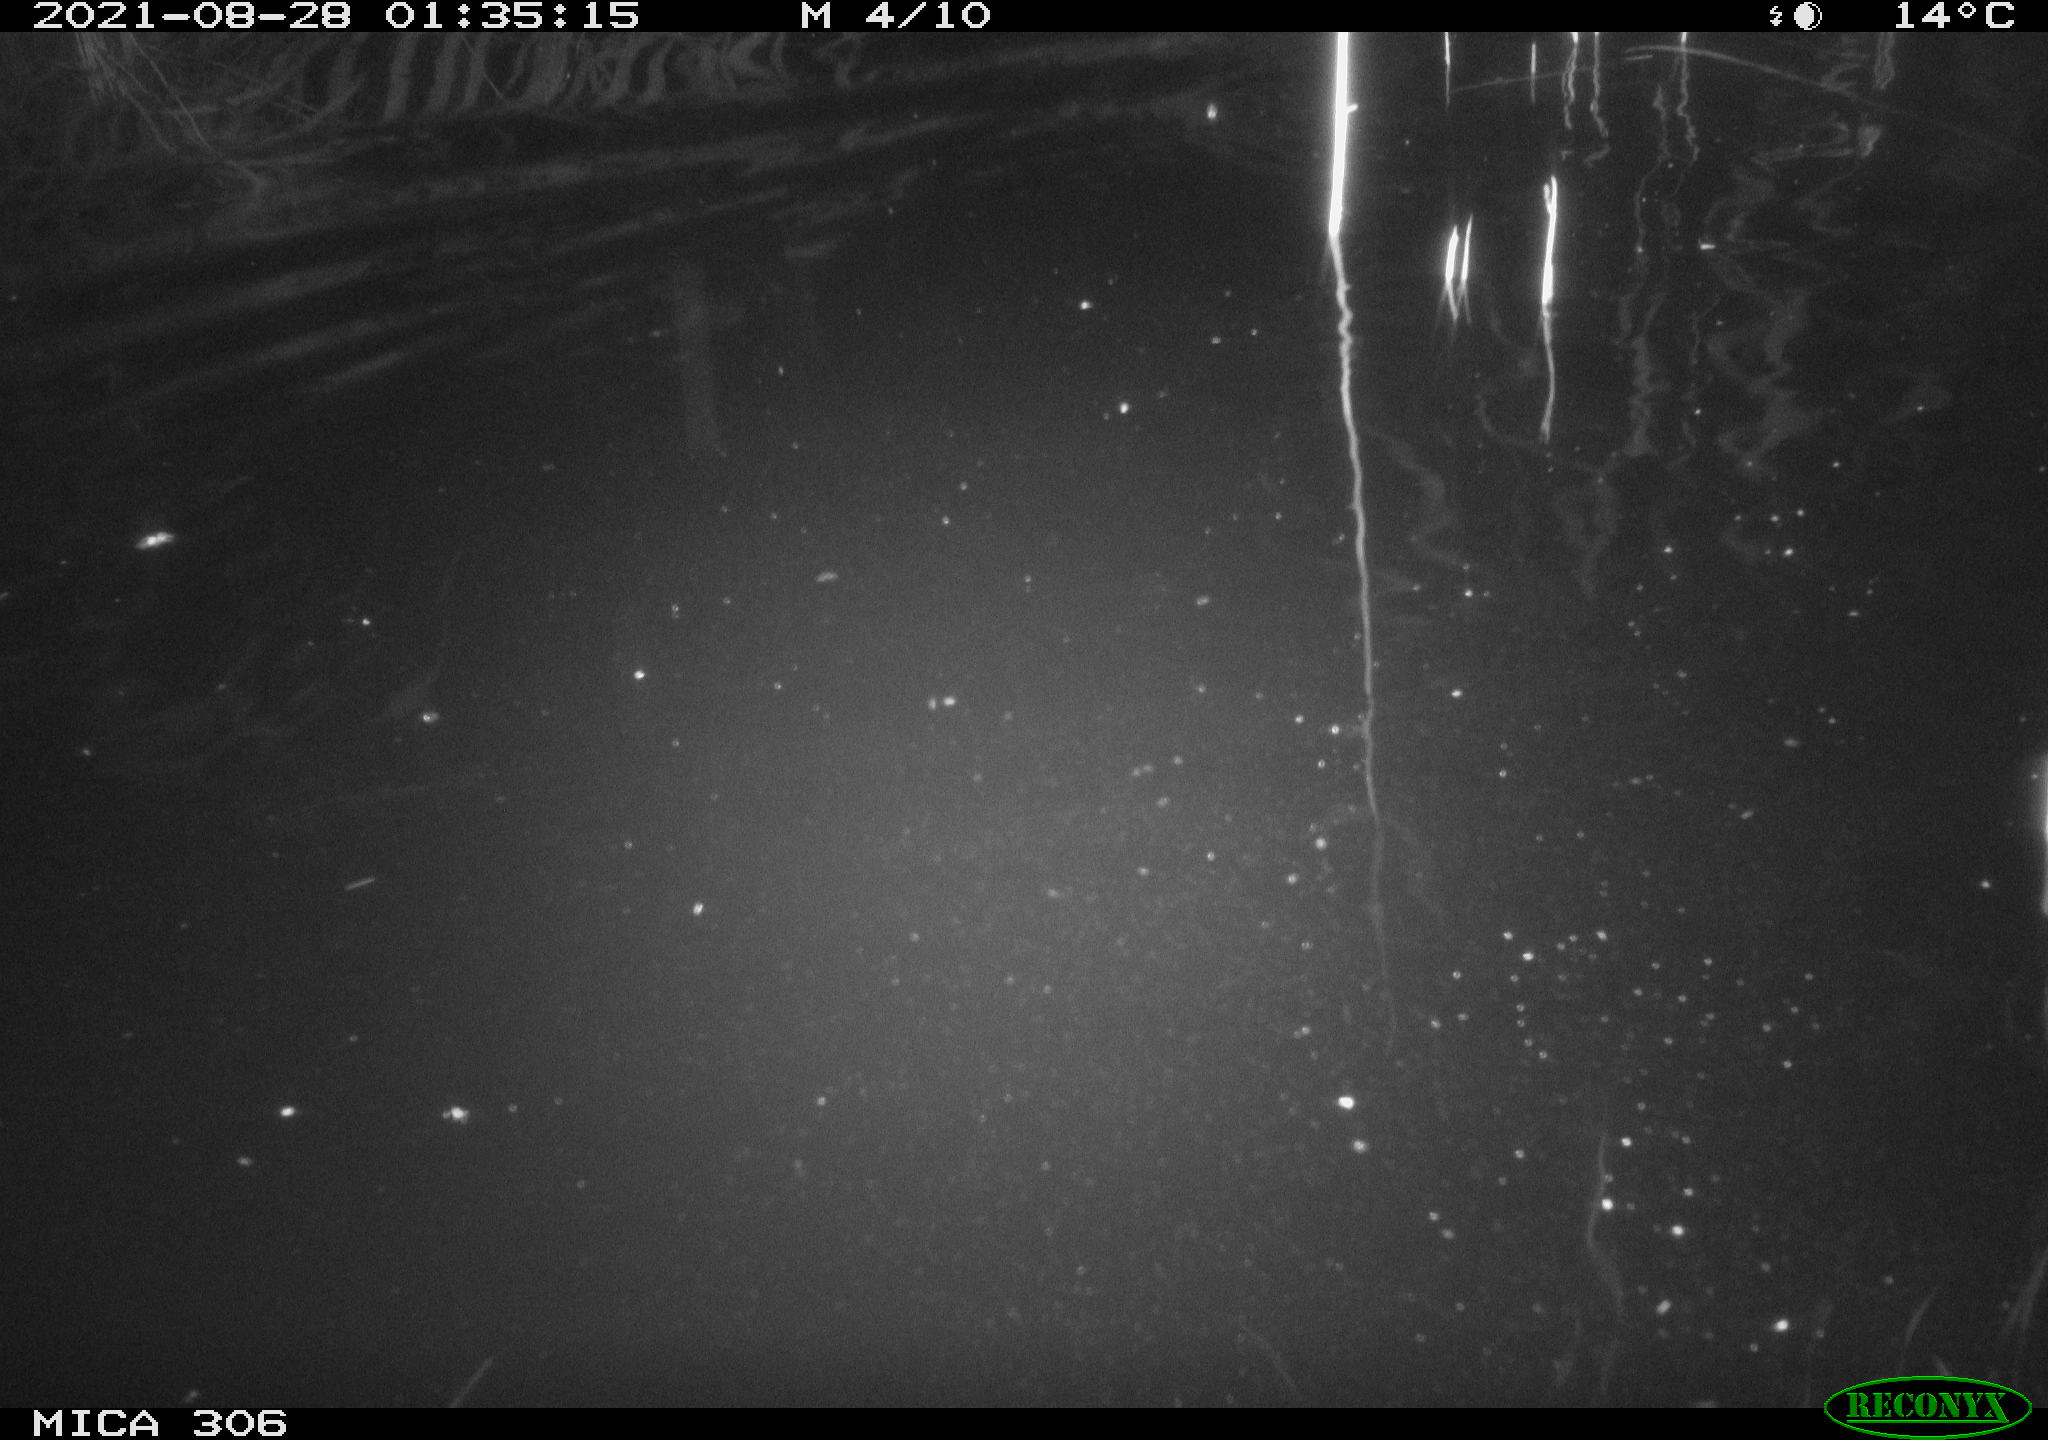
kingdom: Animalia
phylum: Chordata
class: Mammalia
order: Rodentia
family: Cricetidae
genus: Ondatra
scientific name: Ondatra zibethicus
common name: Muskrat
